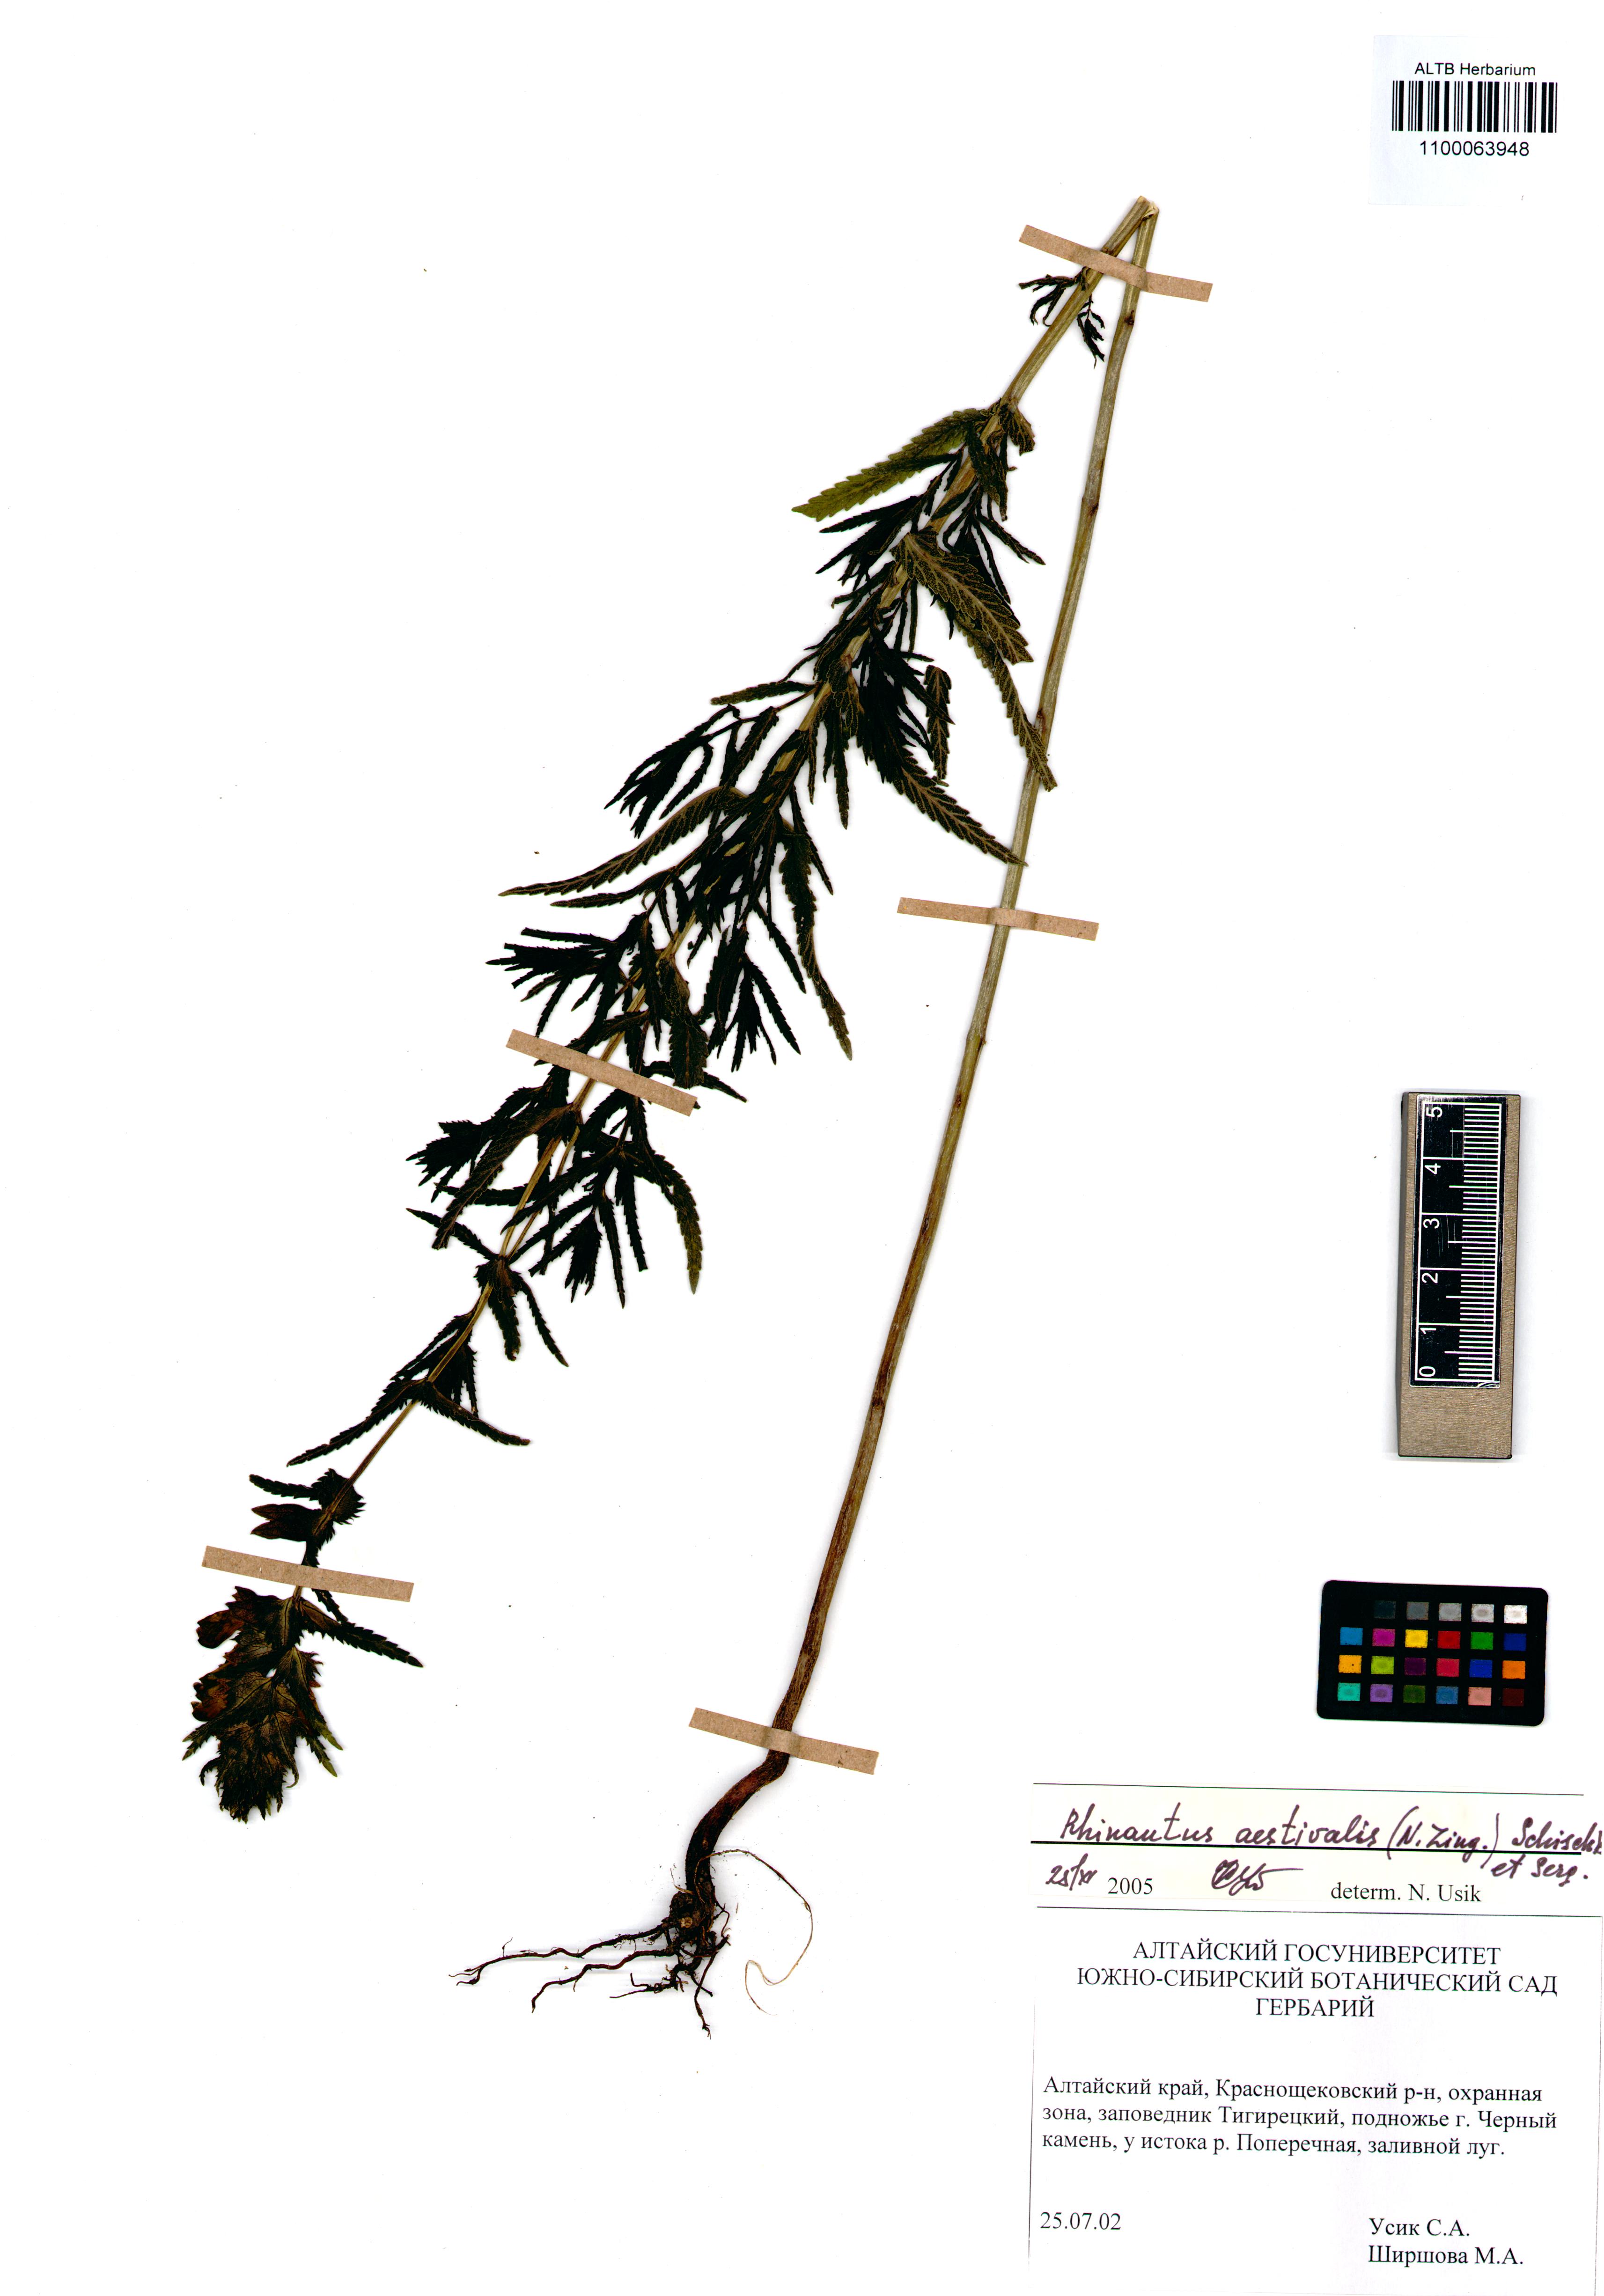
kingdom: Plantae
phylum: Tracheophyta
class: Magnoliopsida
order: Lamiales
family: Orobanchaceae
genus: Rhinanthus
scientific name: Rhinanthus serotinus
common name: Late-flowering yellow rattle
